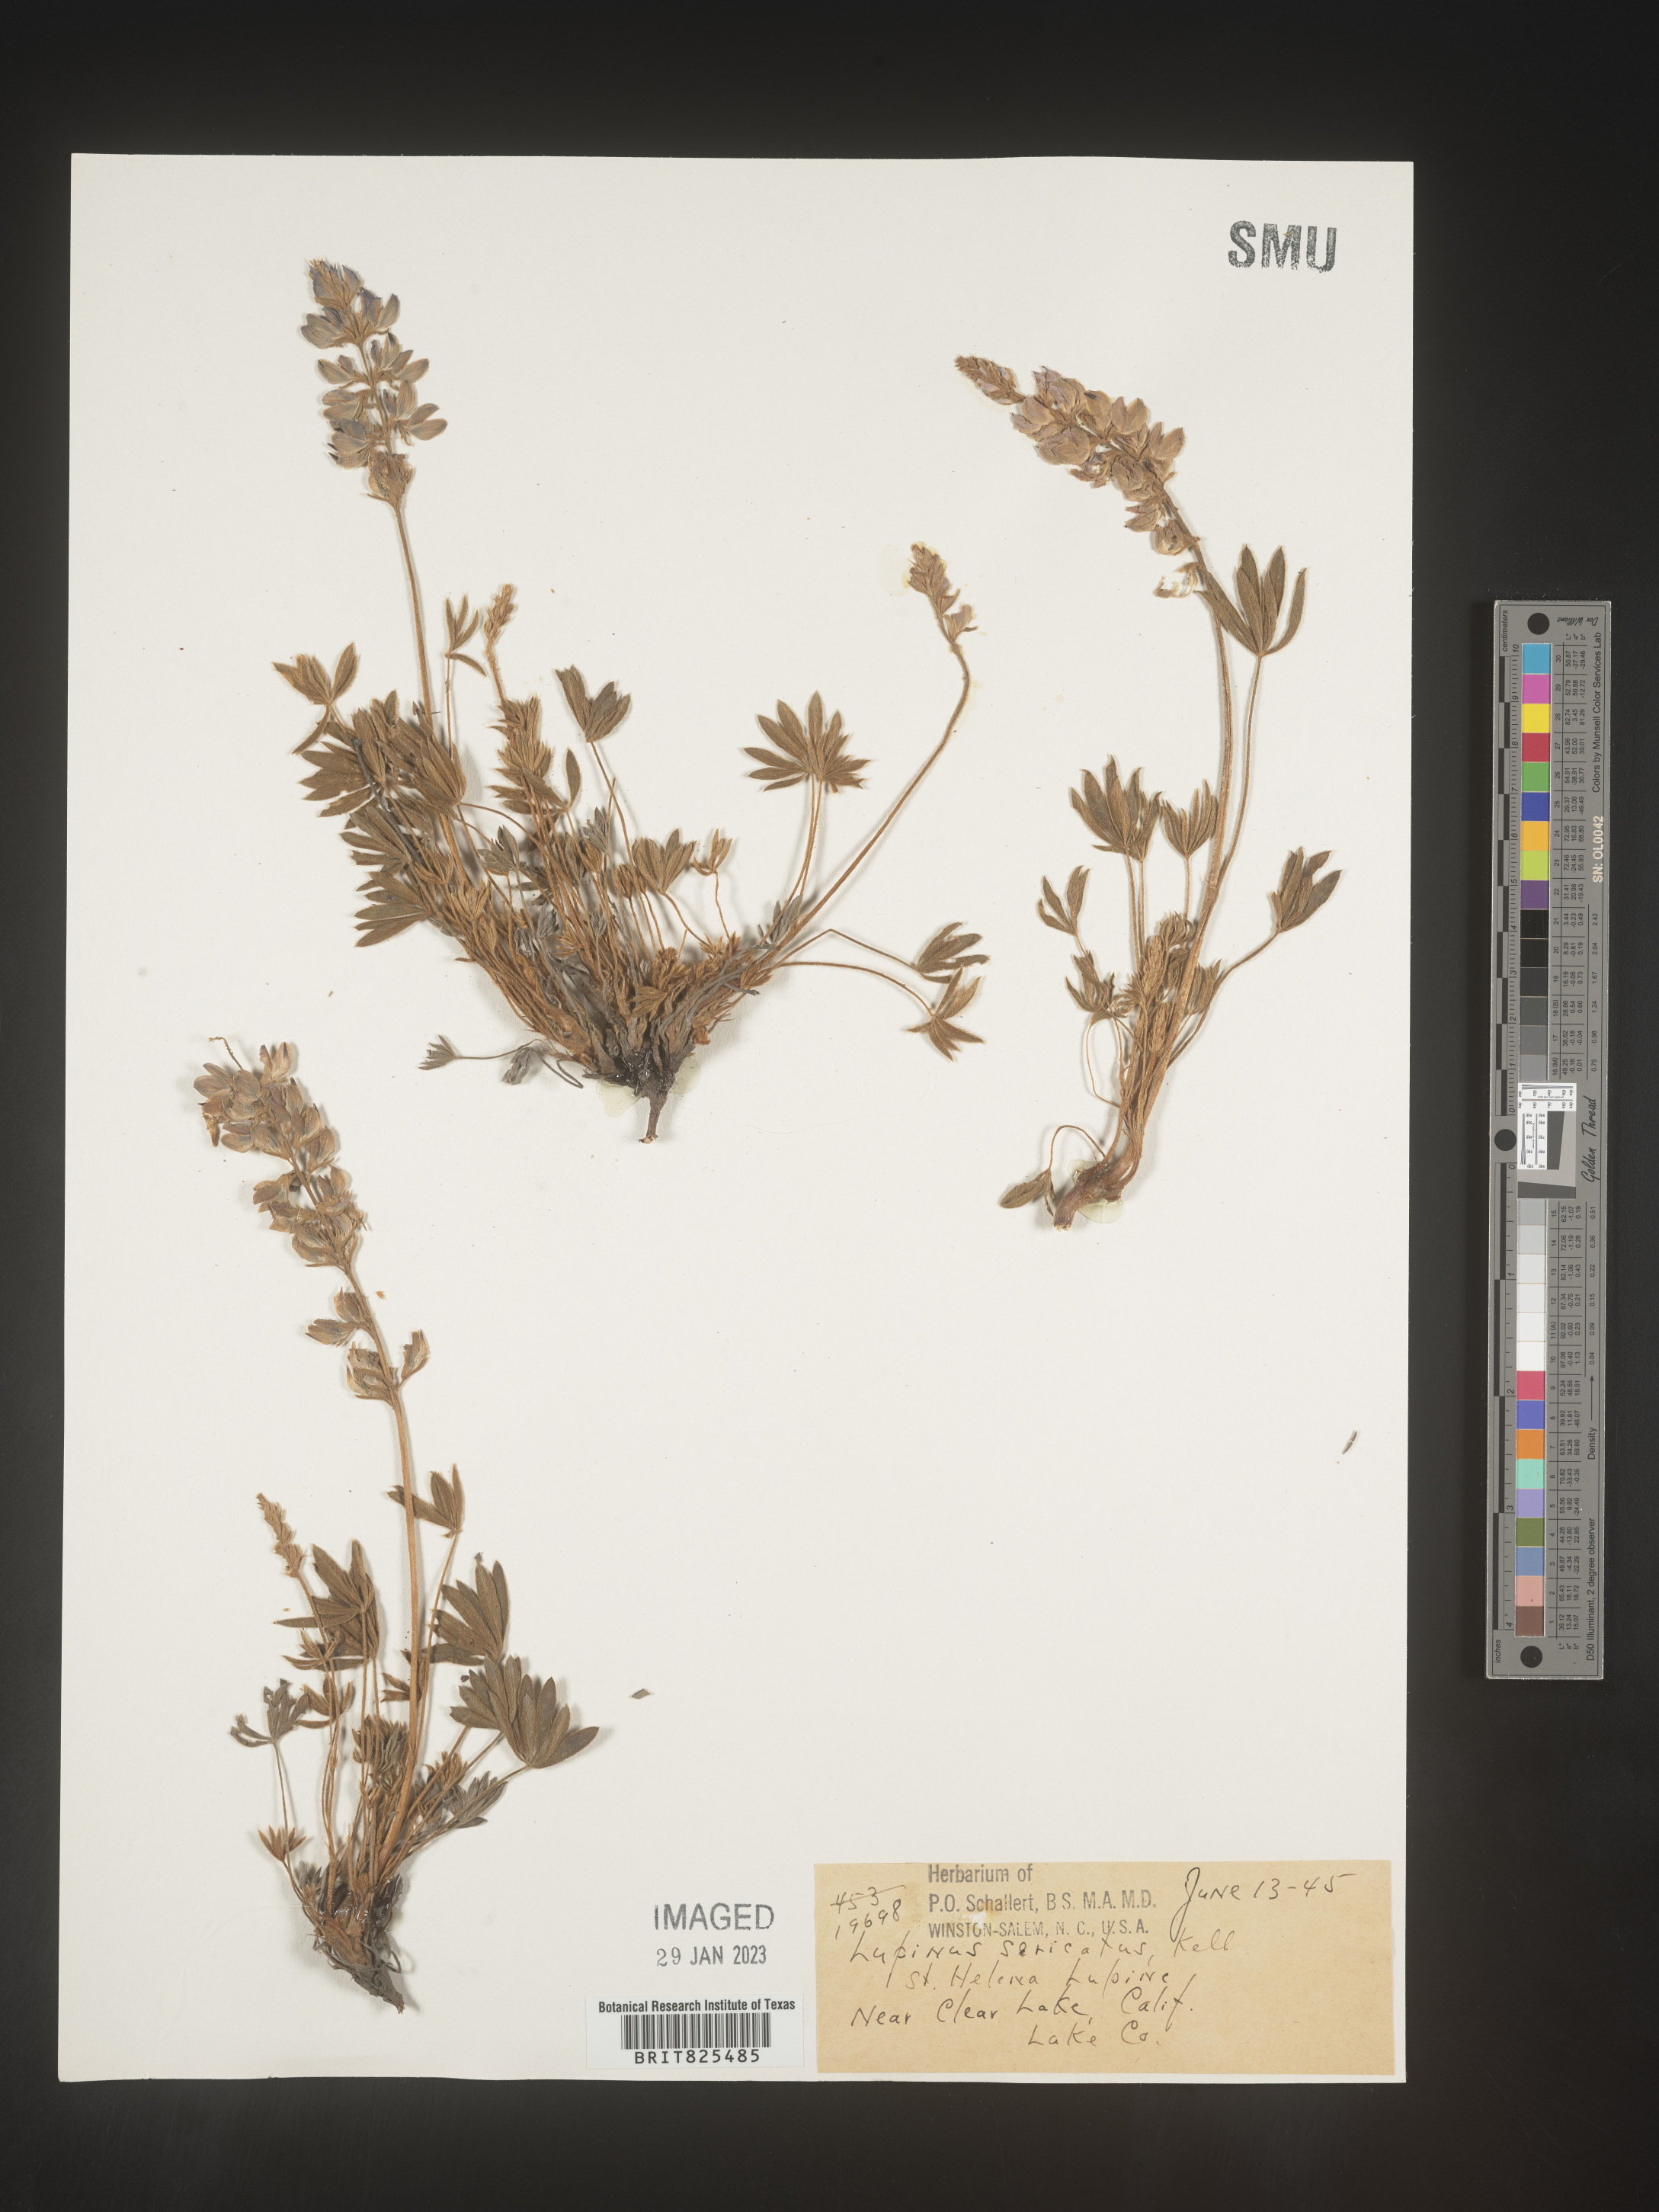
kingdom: Plantae
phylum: Tracheophyta
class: Magnoliopsida
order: Fabales
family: Fabaceae
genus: Lupinus
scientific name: Lupinus
